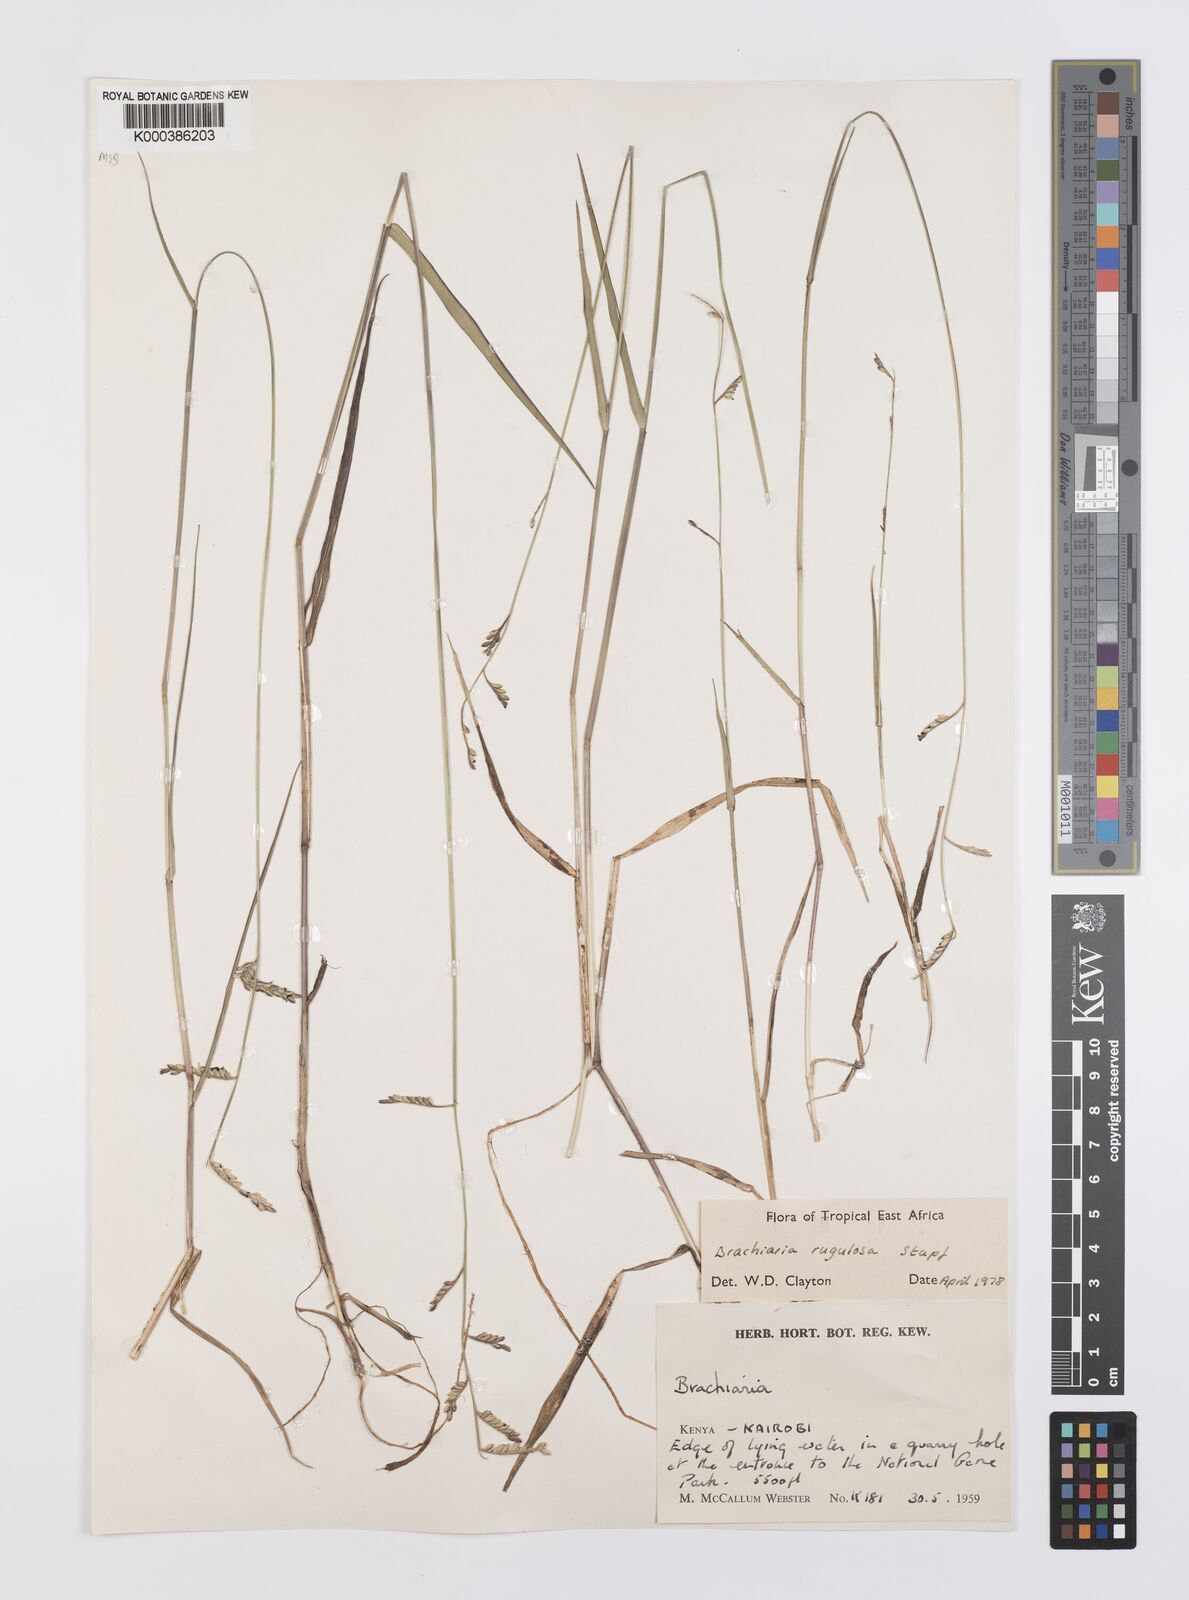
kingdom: Plantae
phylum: Tracheophyta
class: Liliopsida
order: Poales
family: Poaceae
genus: Urochloa
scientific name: Urochloa rugulosa
